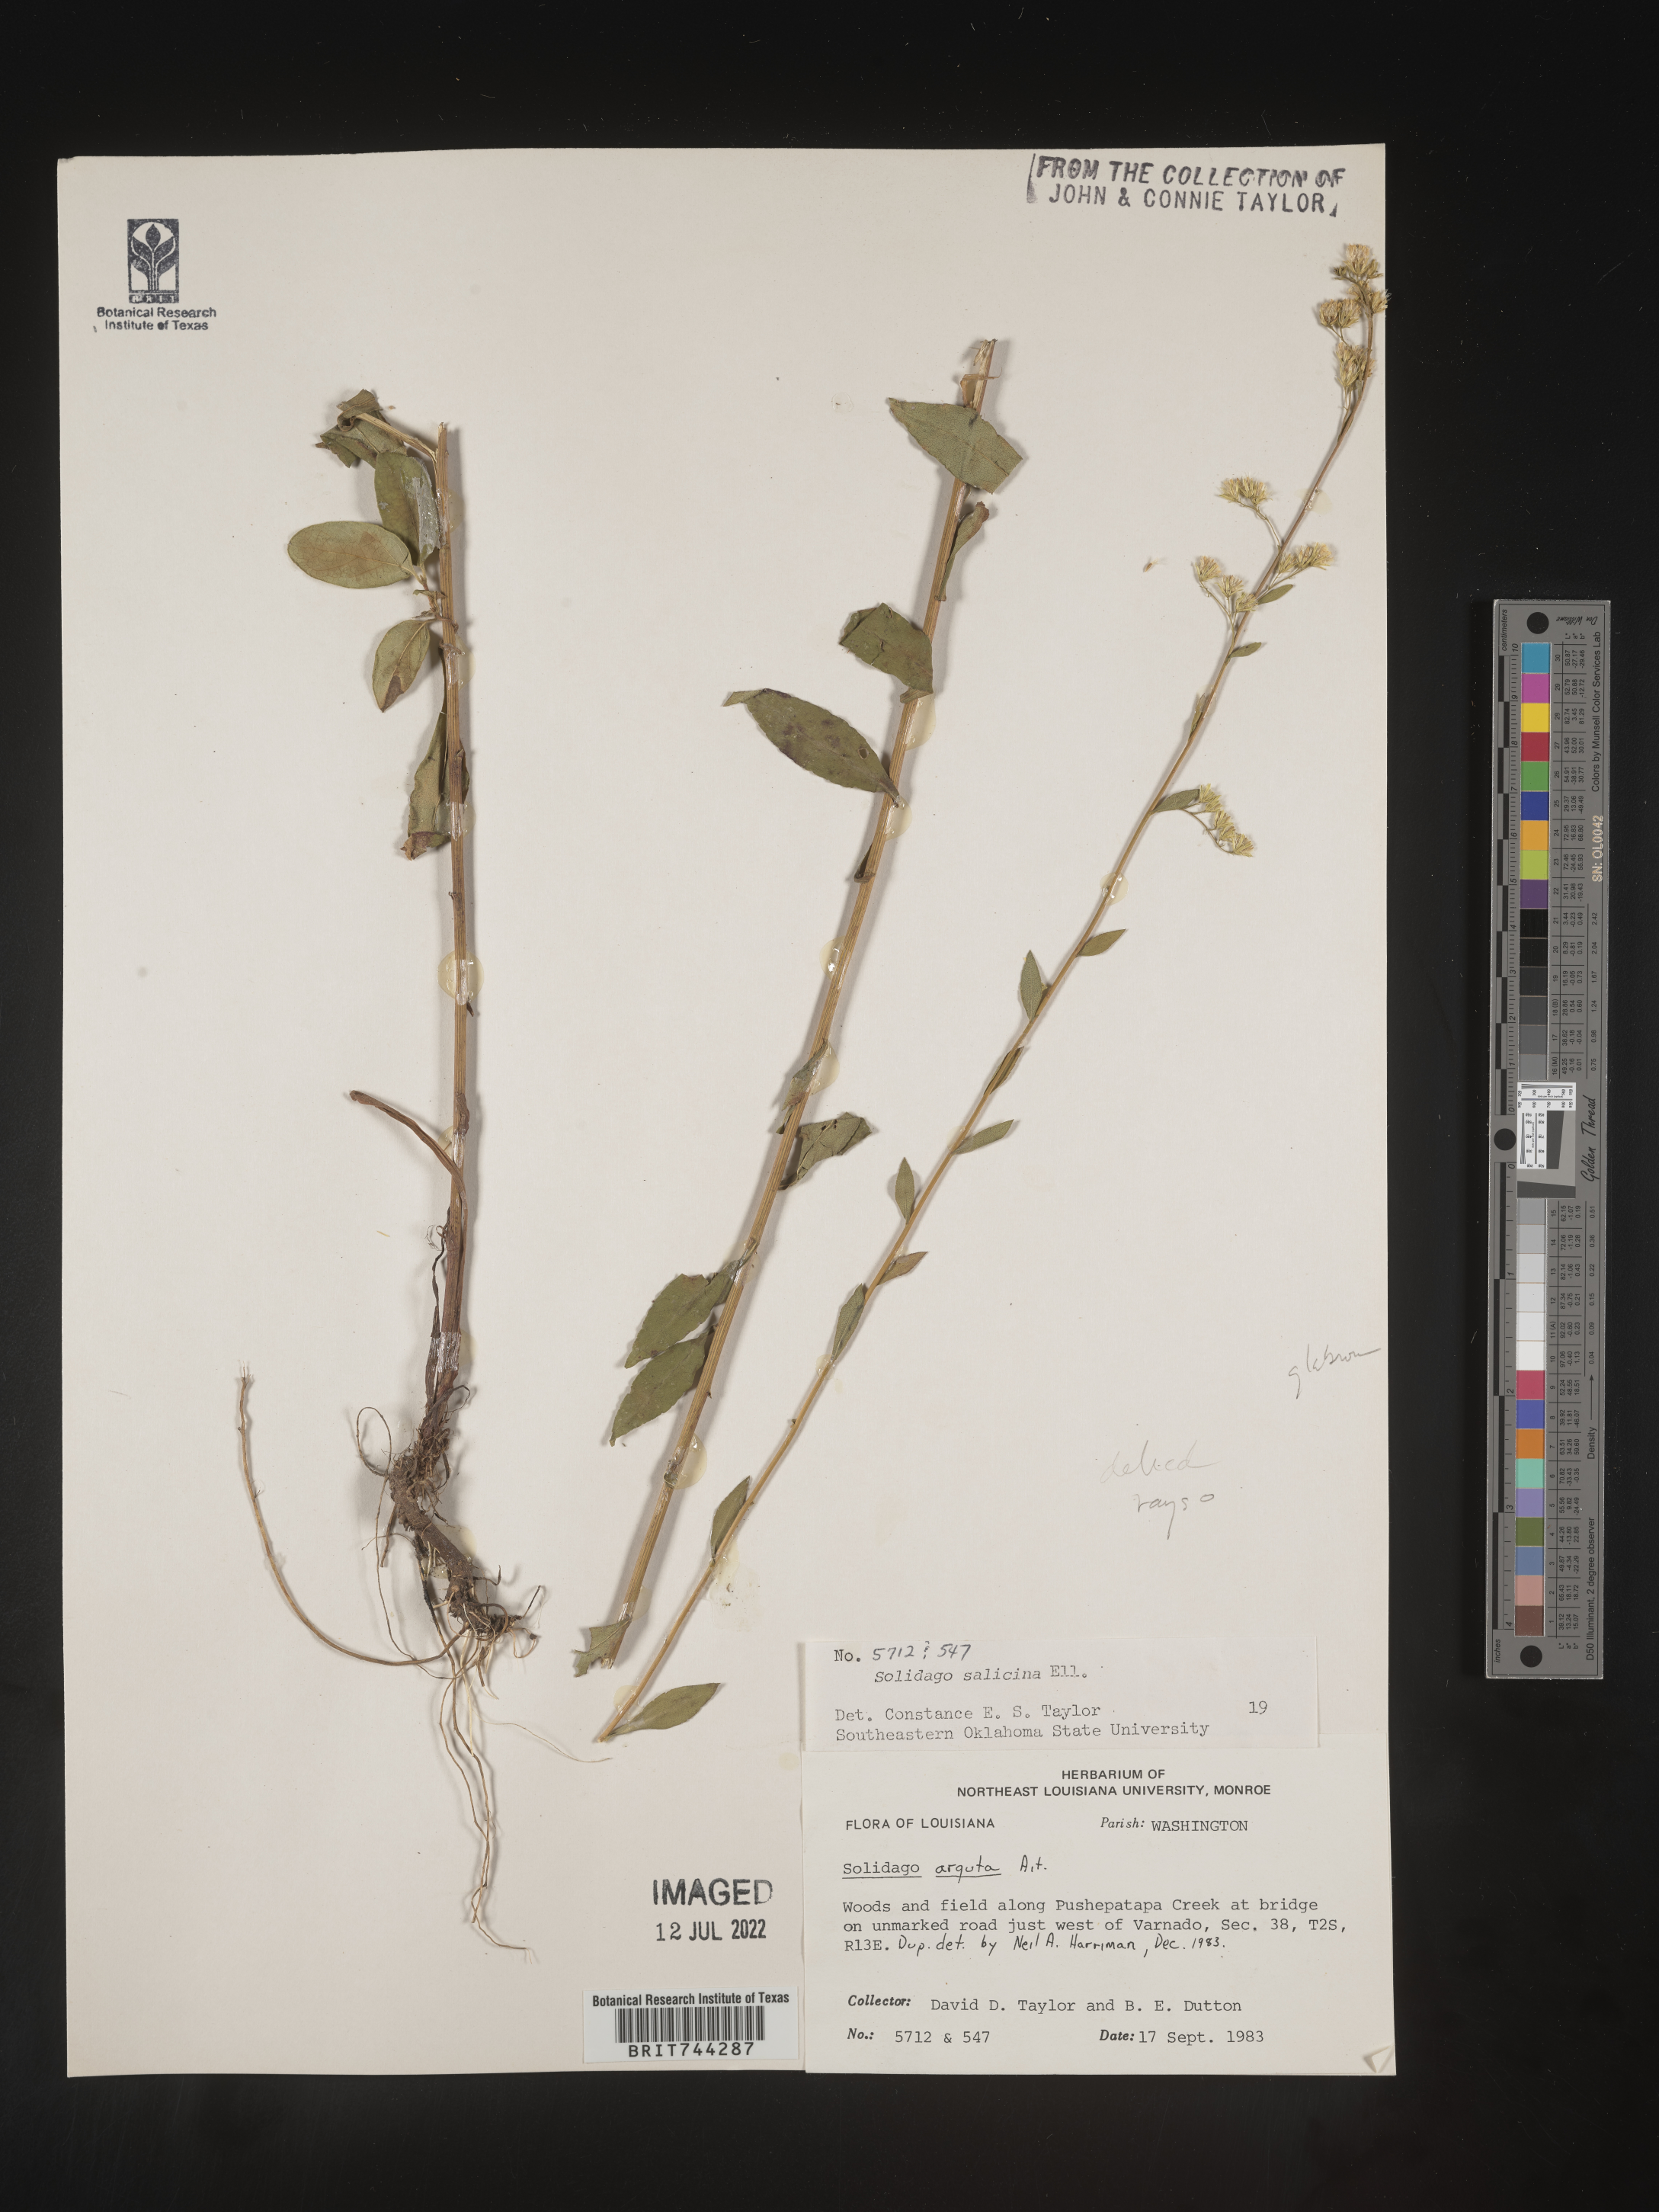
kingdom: Plantae
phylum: Tracheophyta
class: Magnoliopsida
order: Asterales
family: Asteraceae
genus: Solidago
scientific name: Solidago boottii
